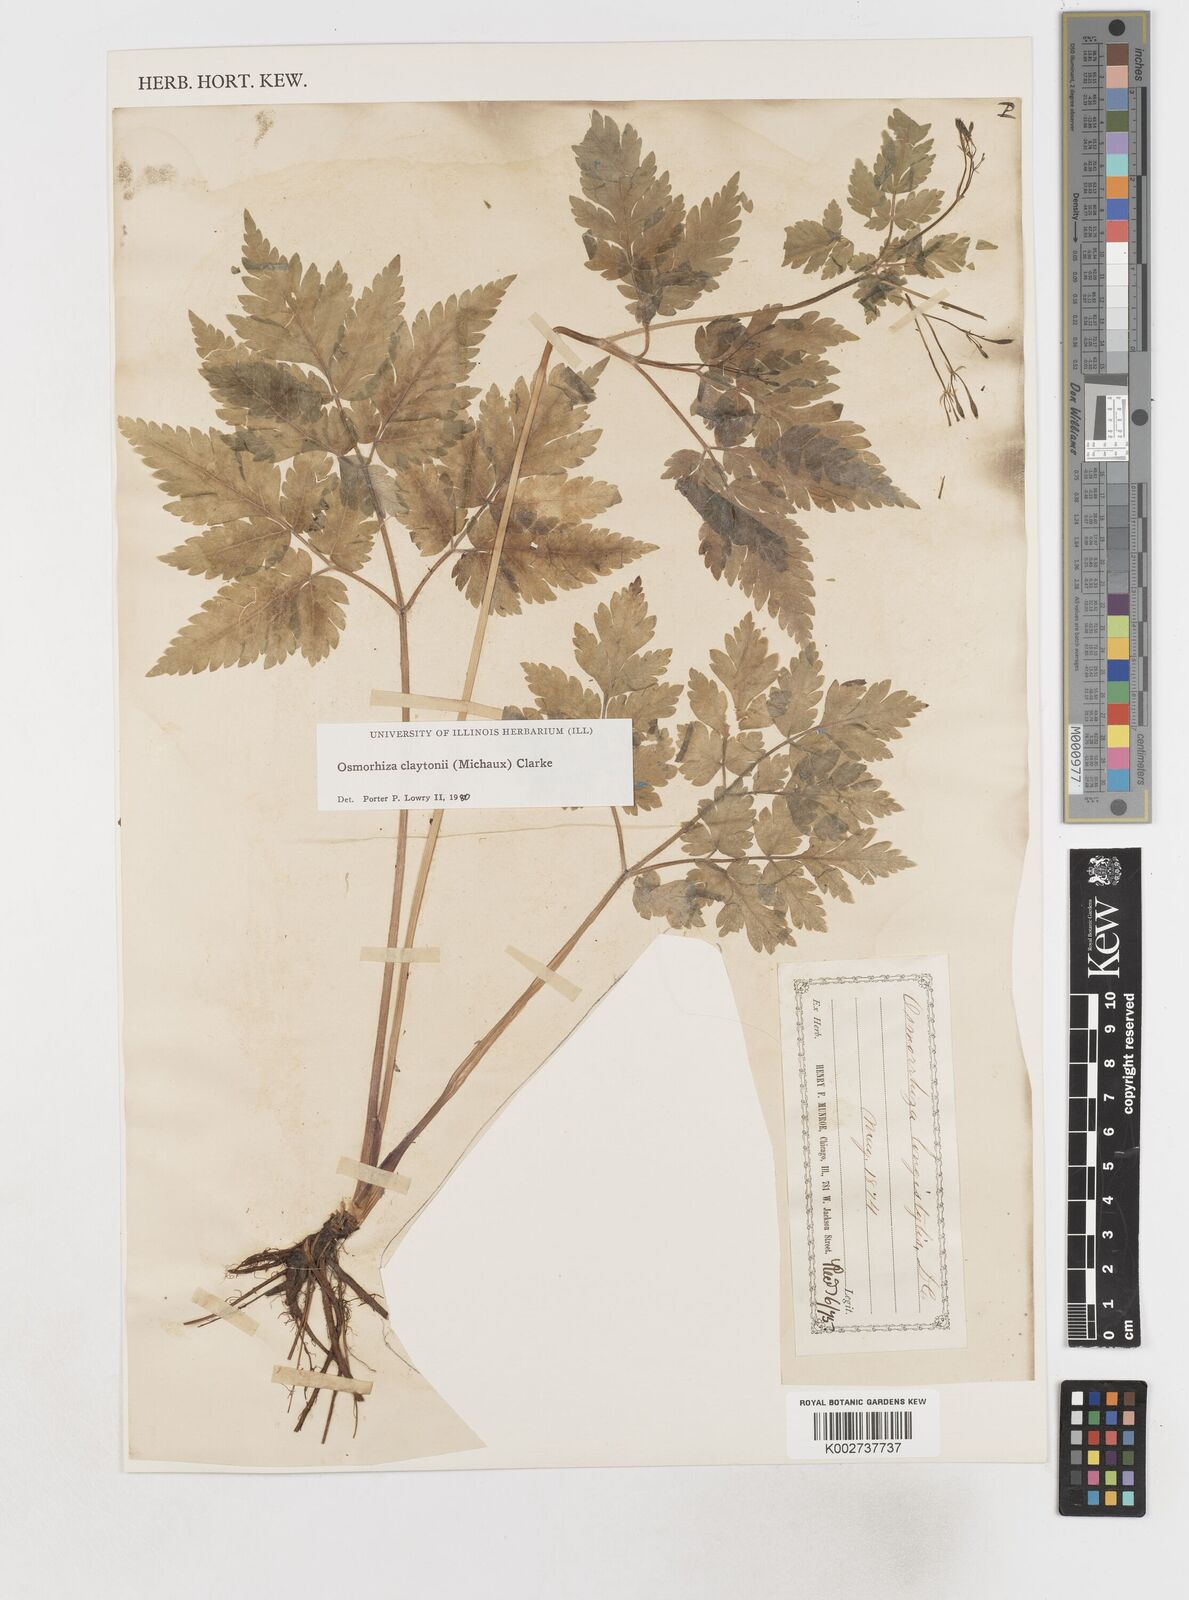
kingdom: Plantae
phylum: Tracheophyta
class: Magnoliopsida
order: Apiales
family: Apiaceae
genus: Osmorhiza
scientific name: Osmorhiza claytonii
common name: Hairy sweet cicely
